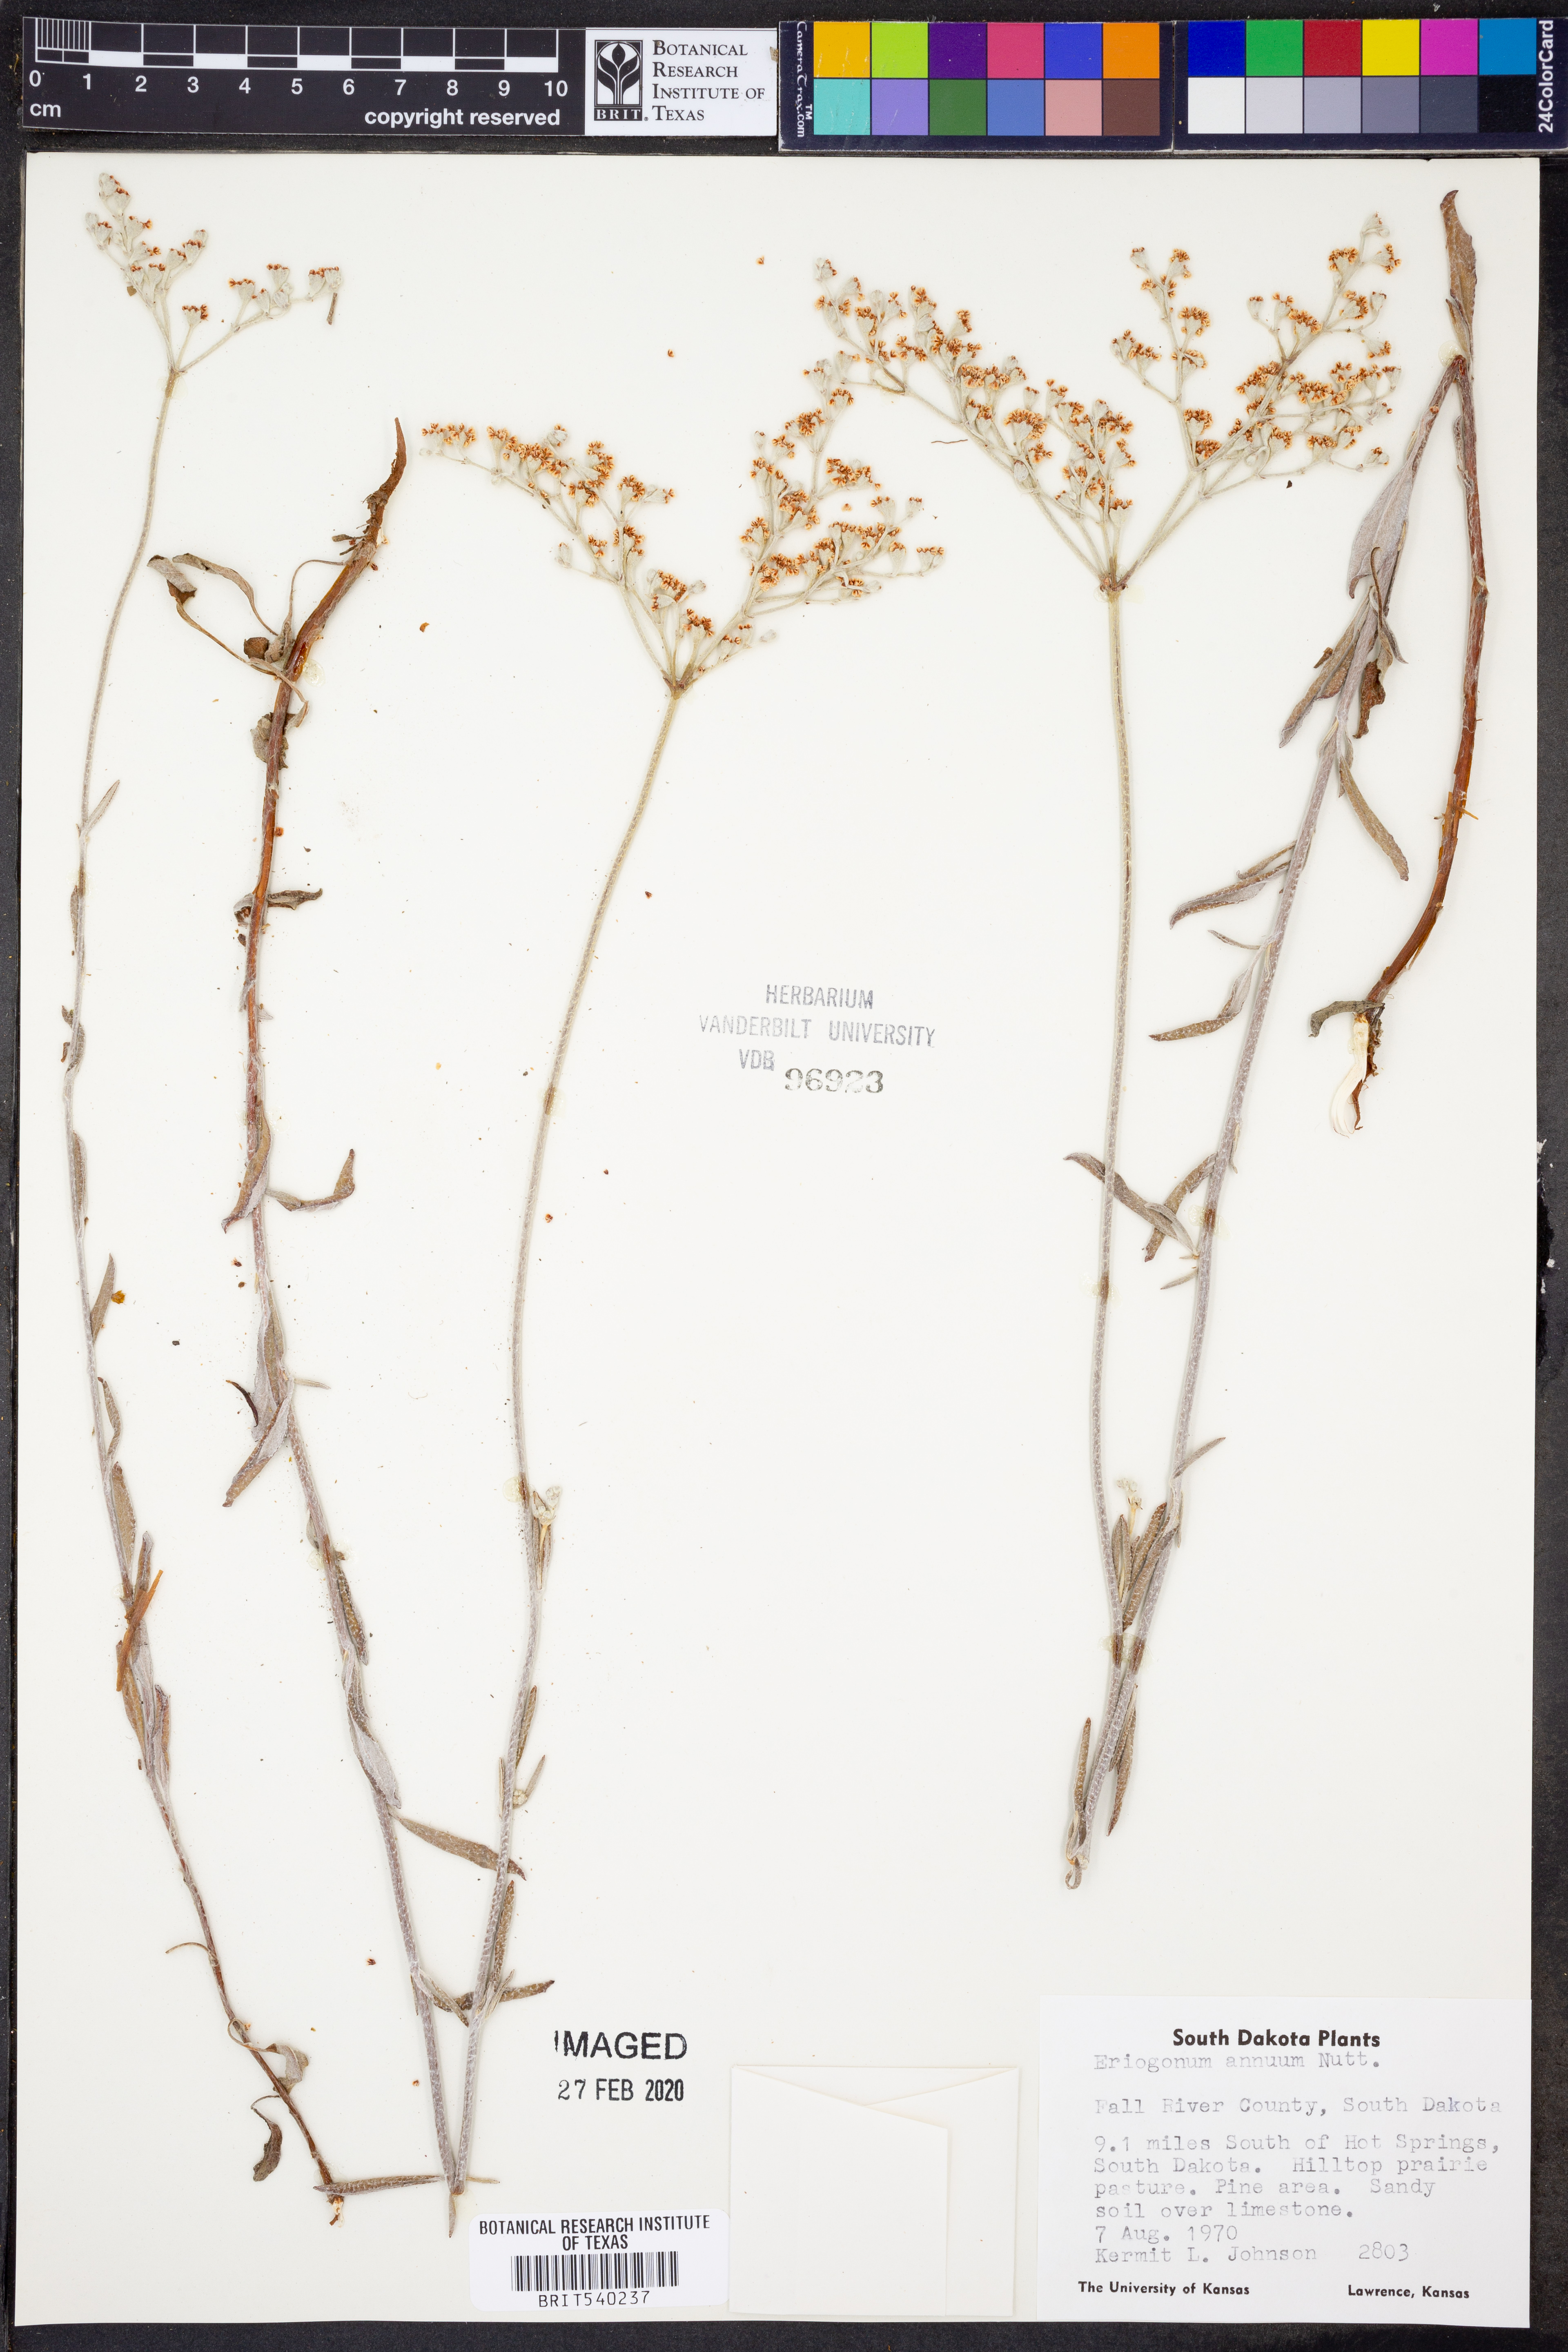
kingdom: Plantae
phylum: Tracheophyta
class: Magnoliopsida
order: Caryophyllales
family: Polygonaceae
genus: Eriogonum
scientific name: Eriogonum annuum
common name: Annual wild buckwheat
